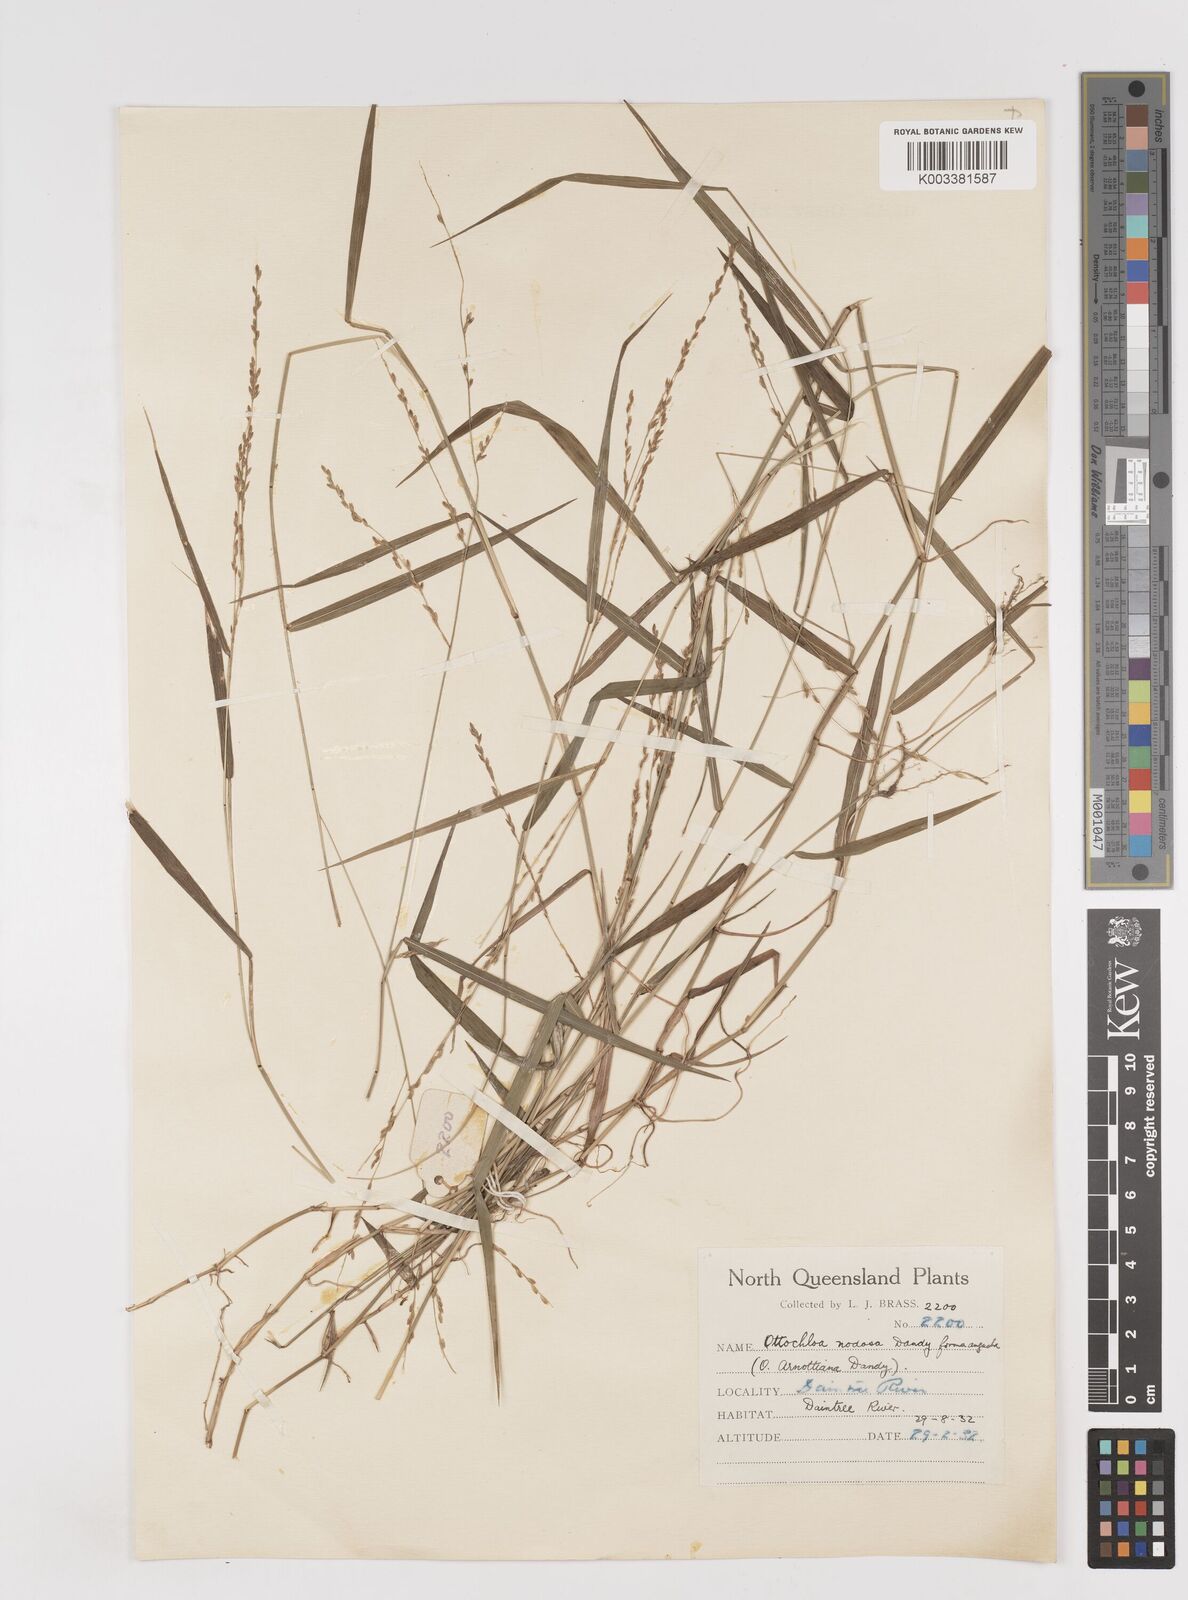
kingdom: Plantae
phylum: Tracheophyta
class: Liliopsida
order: Poales
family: Poaceae
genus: Ottochloa
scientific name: Ottochloa nodosa
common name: Slender-panic grass
